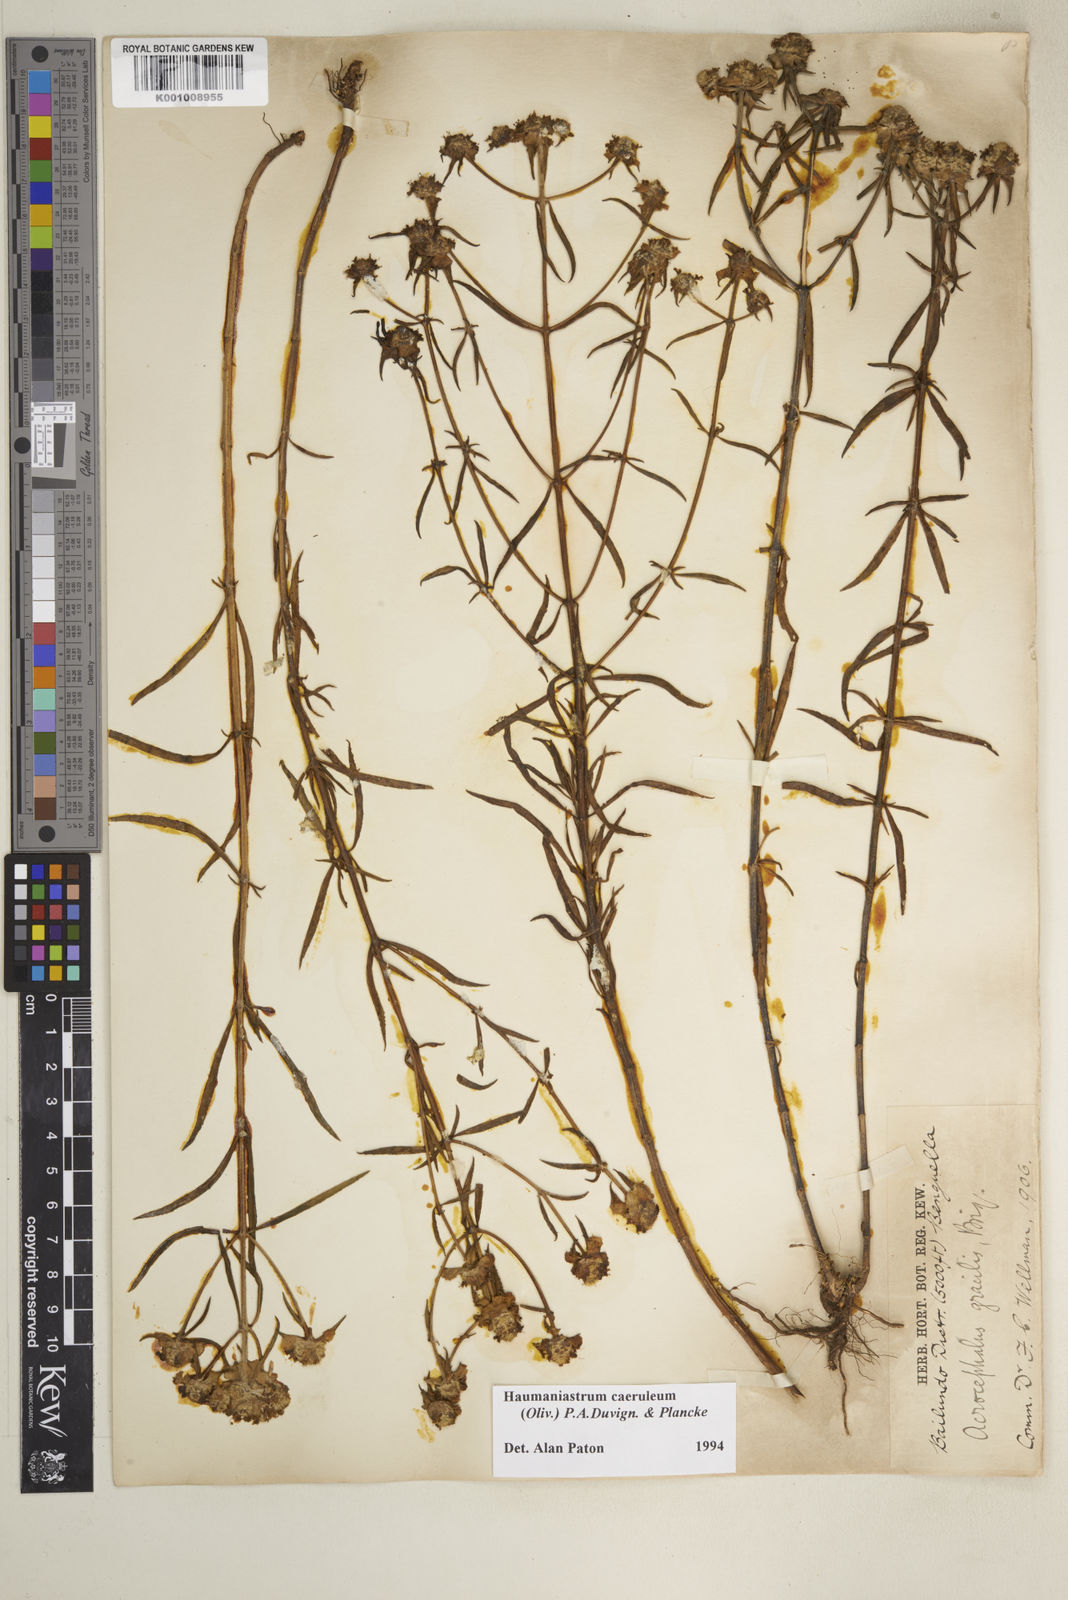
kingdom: Plantae
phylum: Tracheophyta
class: Magnoliopsida
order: Lamiales
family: Lamiaceae
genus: Haumaniastrum
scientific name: Haumaniastrum caeruleum
